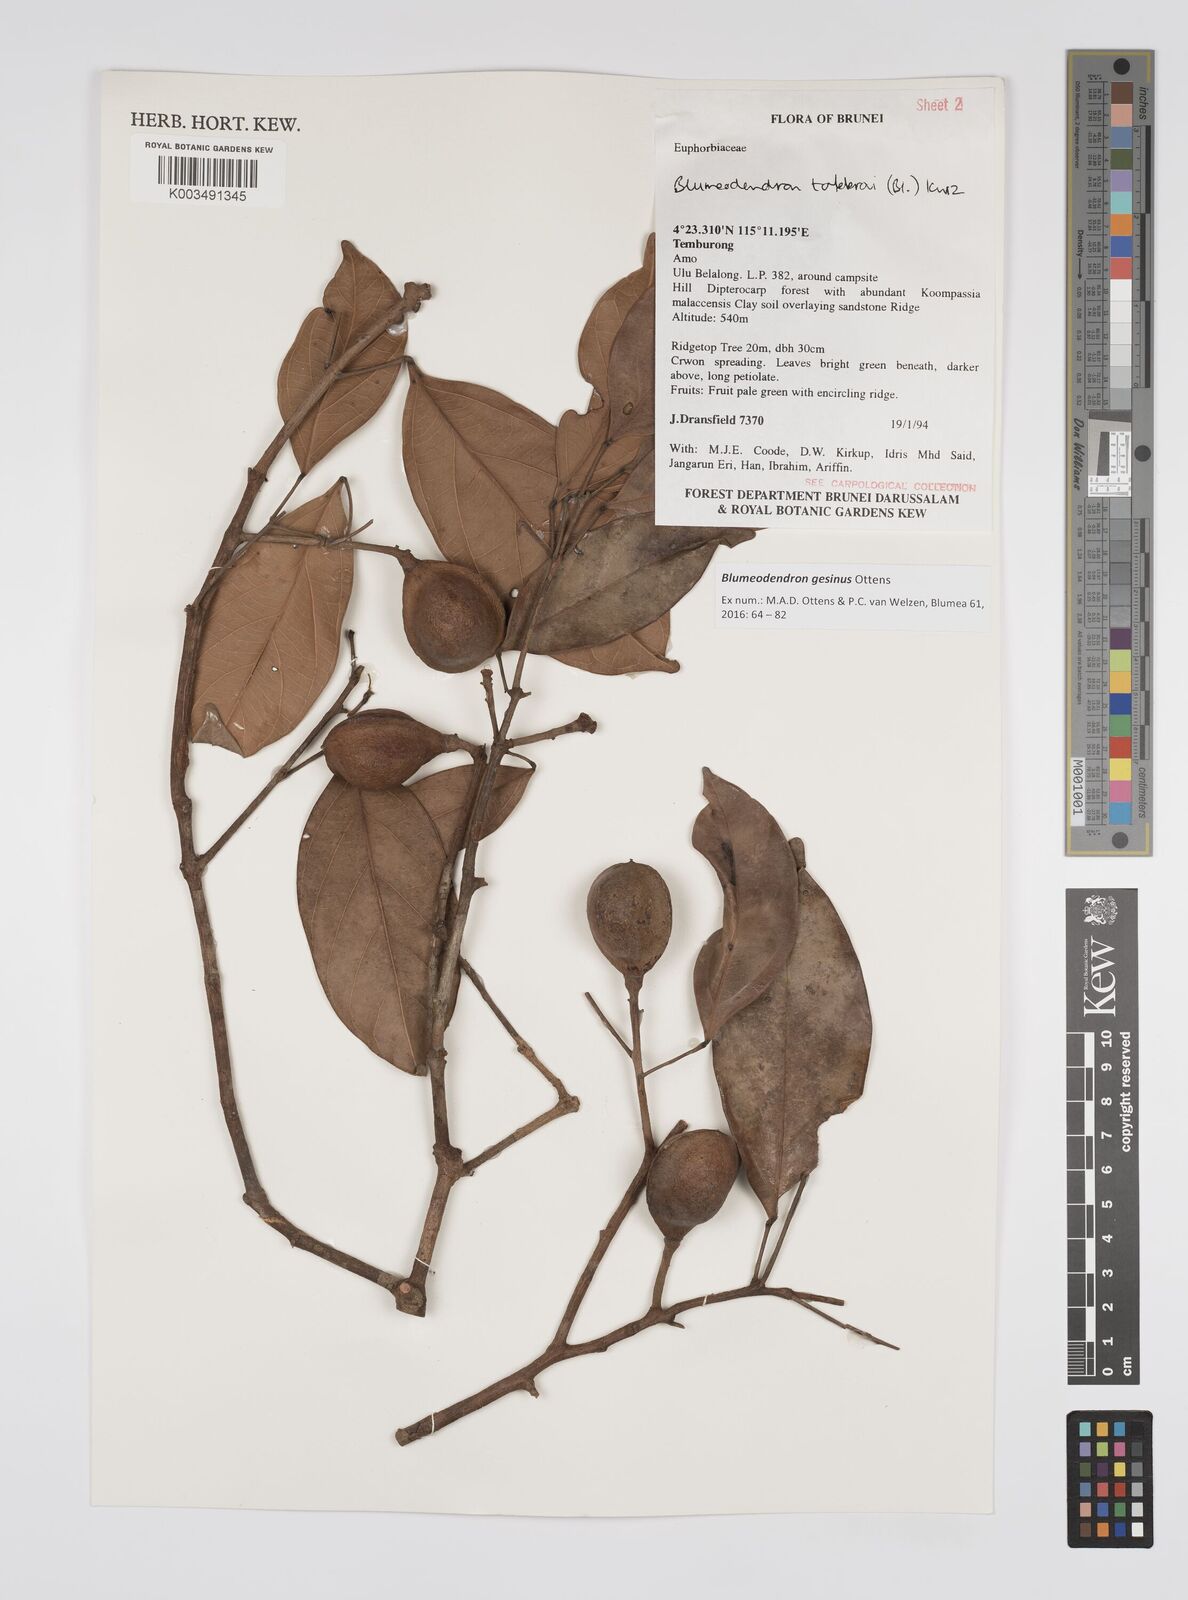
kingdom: Plantae
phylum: Tracheophyta
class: Magnoliopsida
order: Malpighiales
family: Euphorbiaceae
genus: Blumeodendron
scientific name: Blumeodendron gesinus
